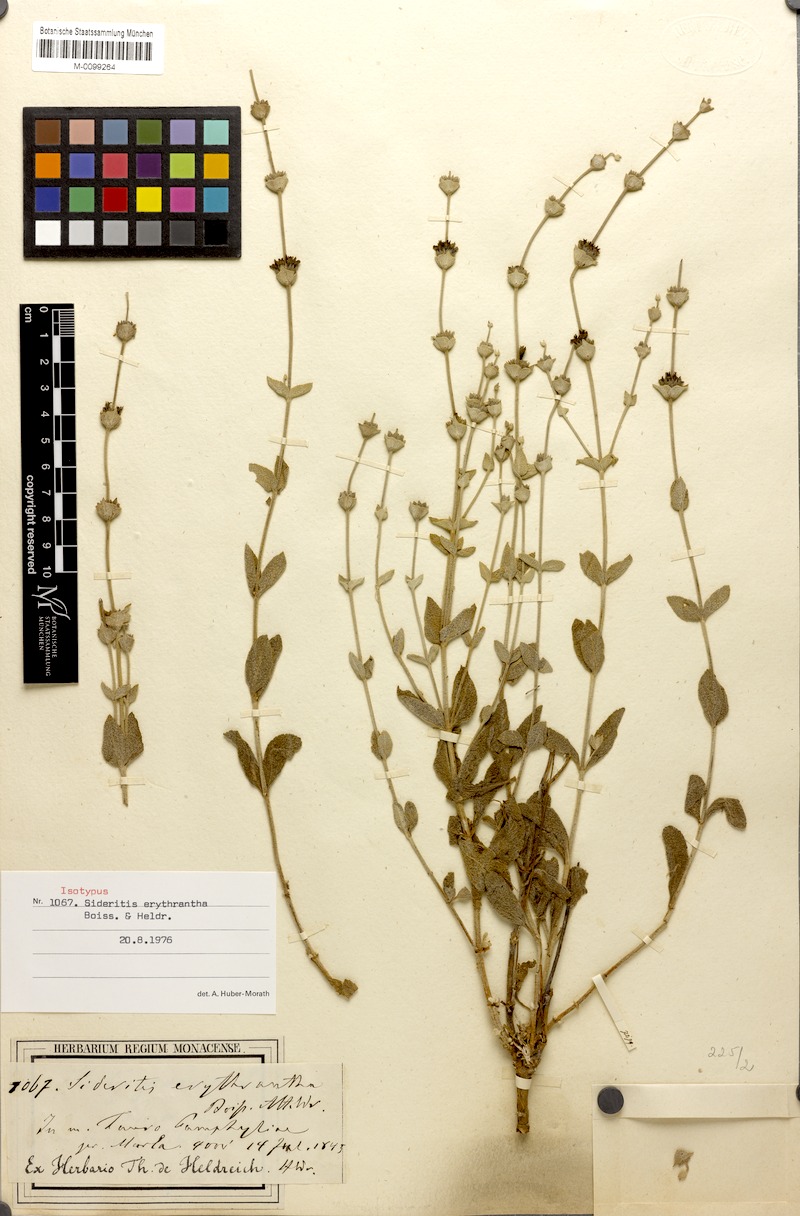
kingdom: Plantae
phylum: Tracheophyta
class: Magnoliopsida
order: Lamiales
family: Lamiaceae
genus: Sideritis
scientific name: Sideritis erythrantha
